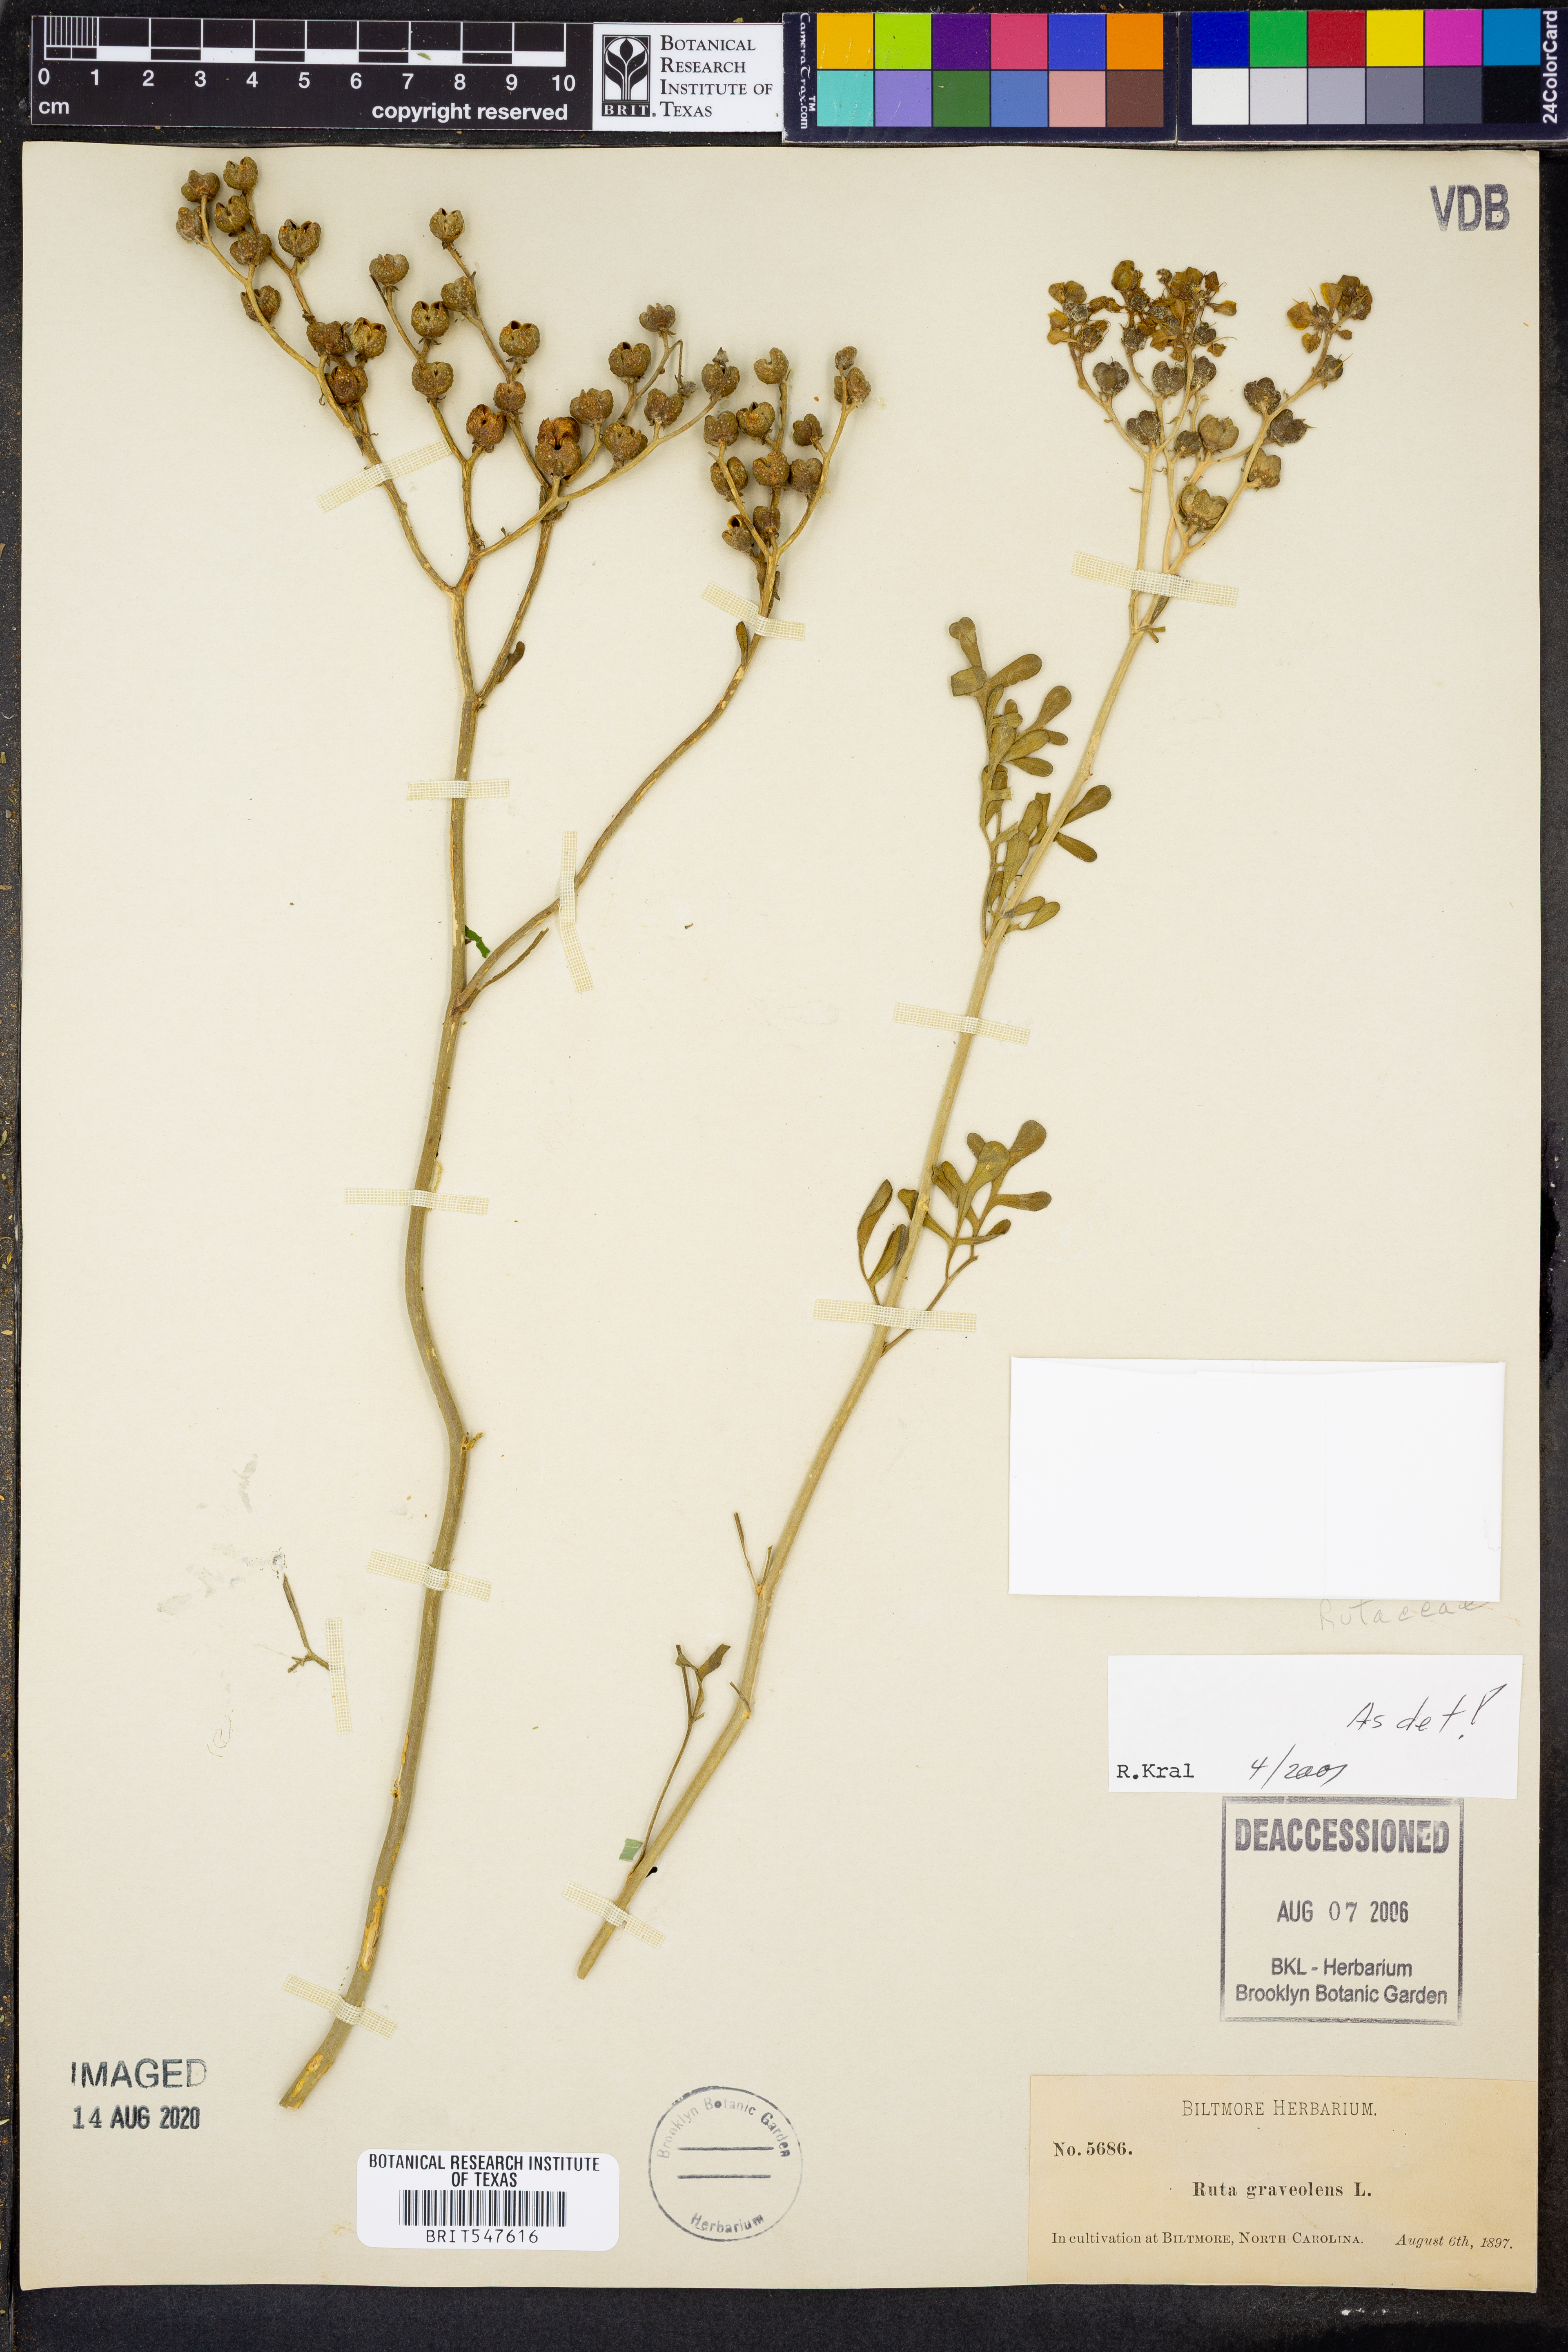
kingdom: Plantae
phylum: Tracheophyta
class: Magnoliopsida
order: Sapindales
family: Rutaceae
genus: Ruta
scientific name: Ruta graveolens
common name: Common rue
